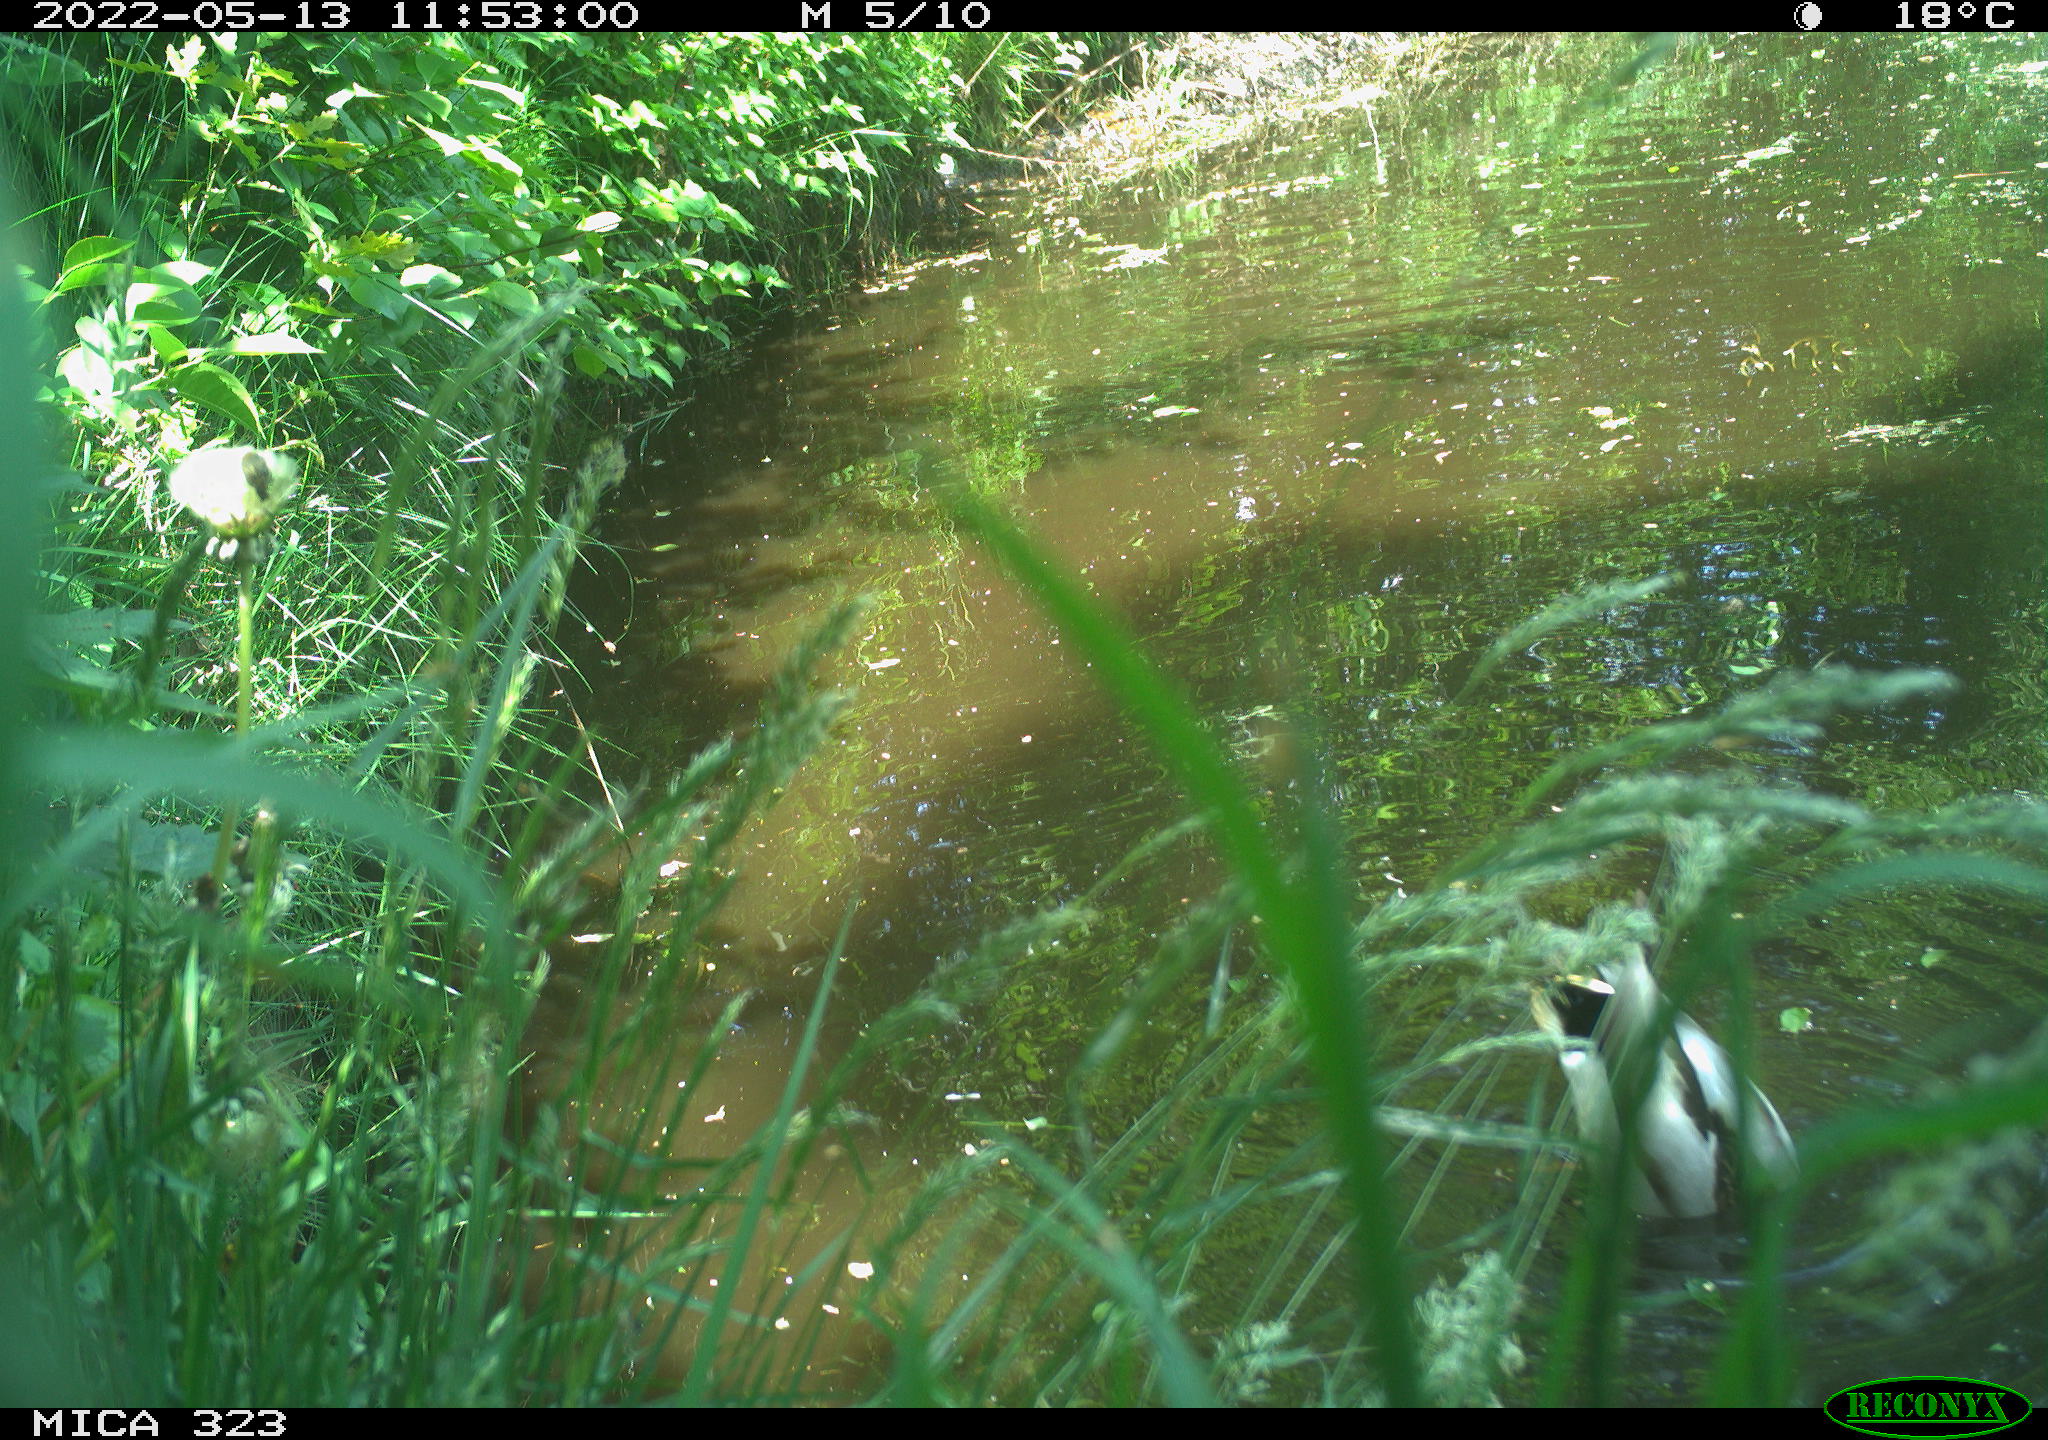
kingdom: Animalia
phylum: Chordata
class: Aves
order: Anseriformes
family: Anatidae
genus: Anas
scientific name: Anas platyrhynchos
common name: Mallard
